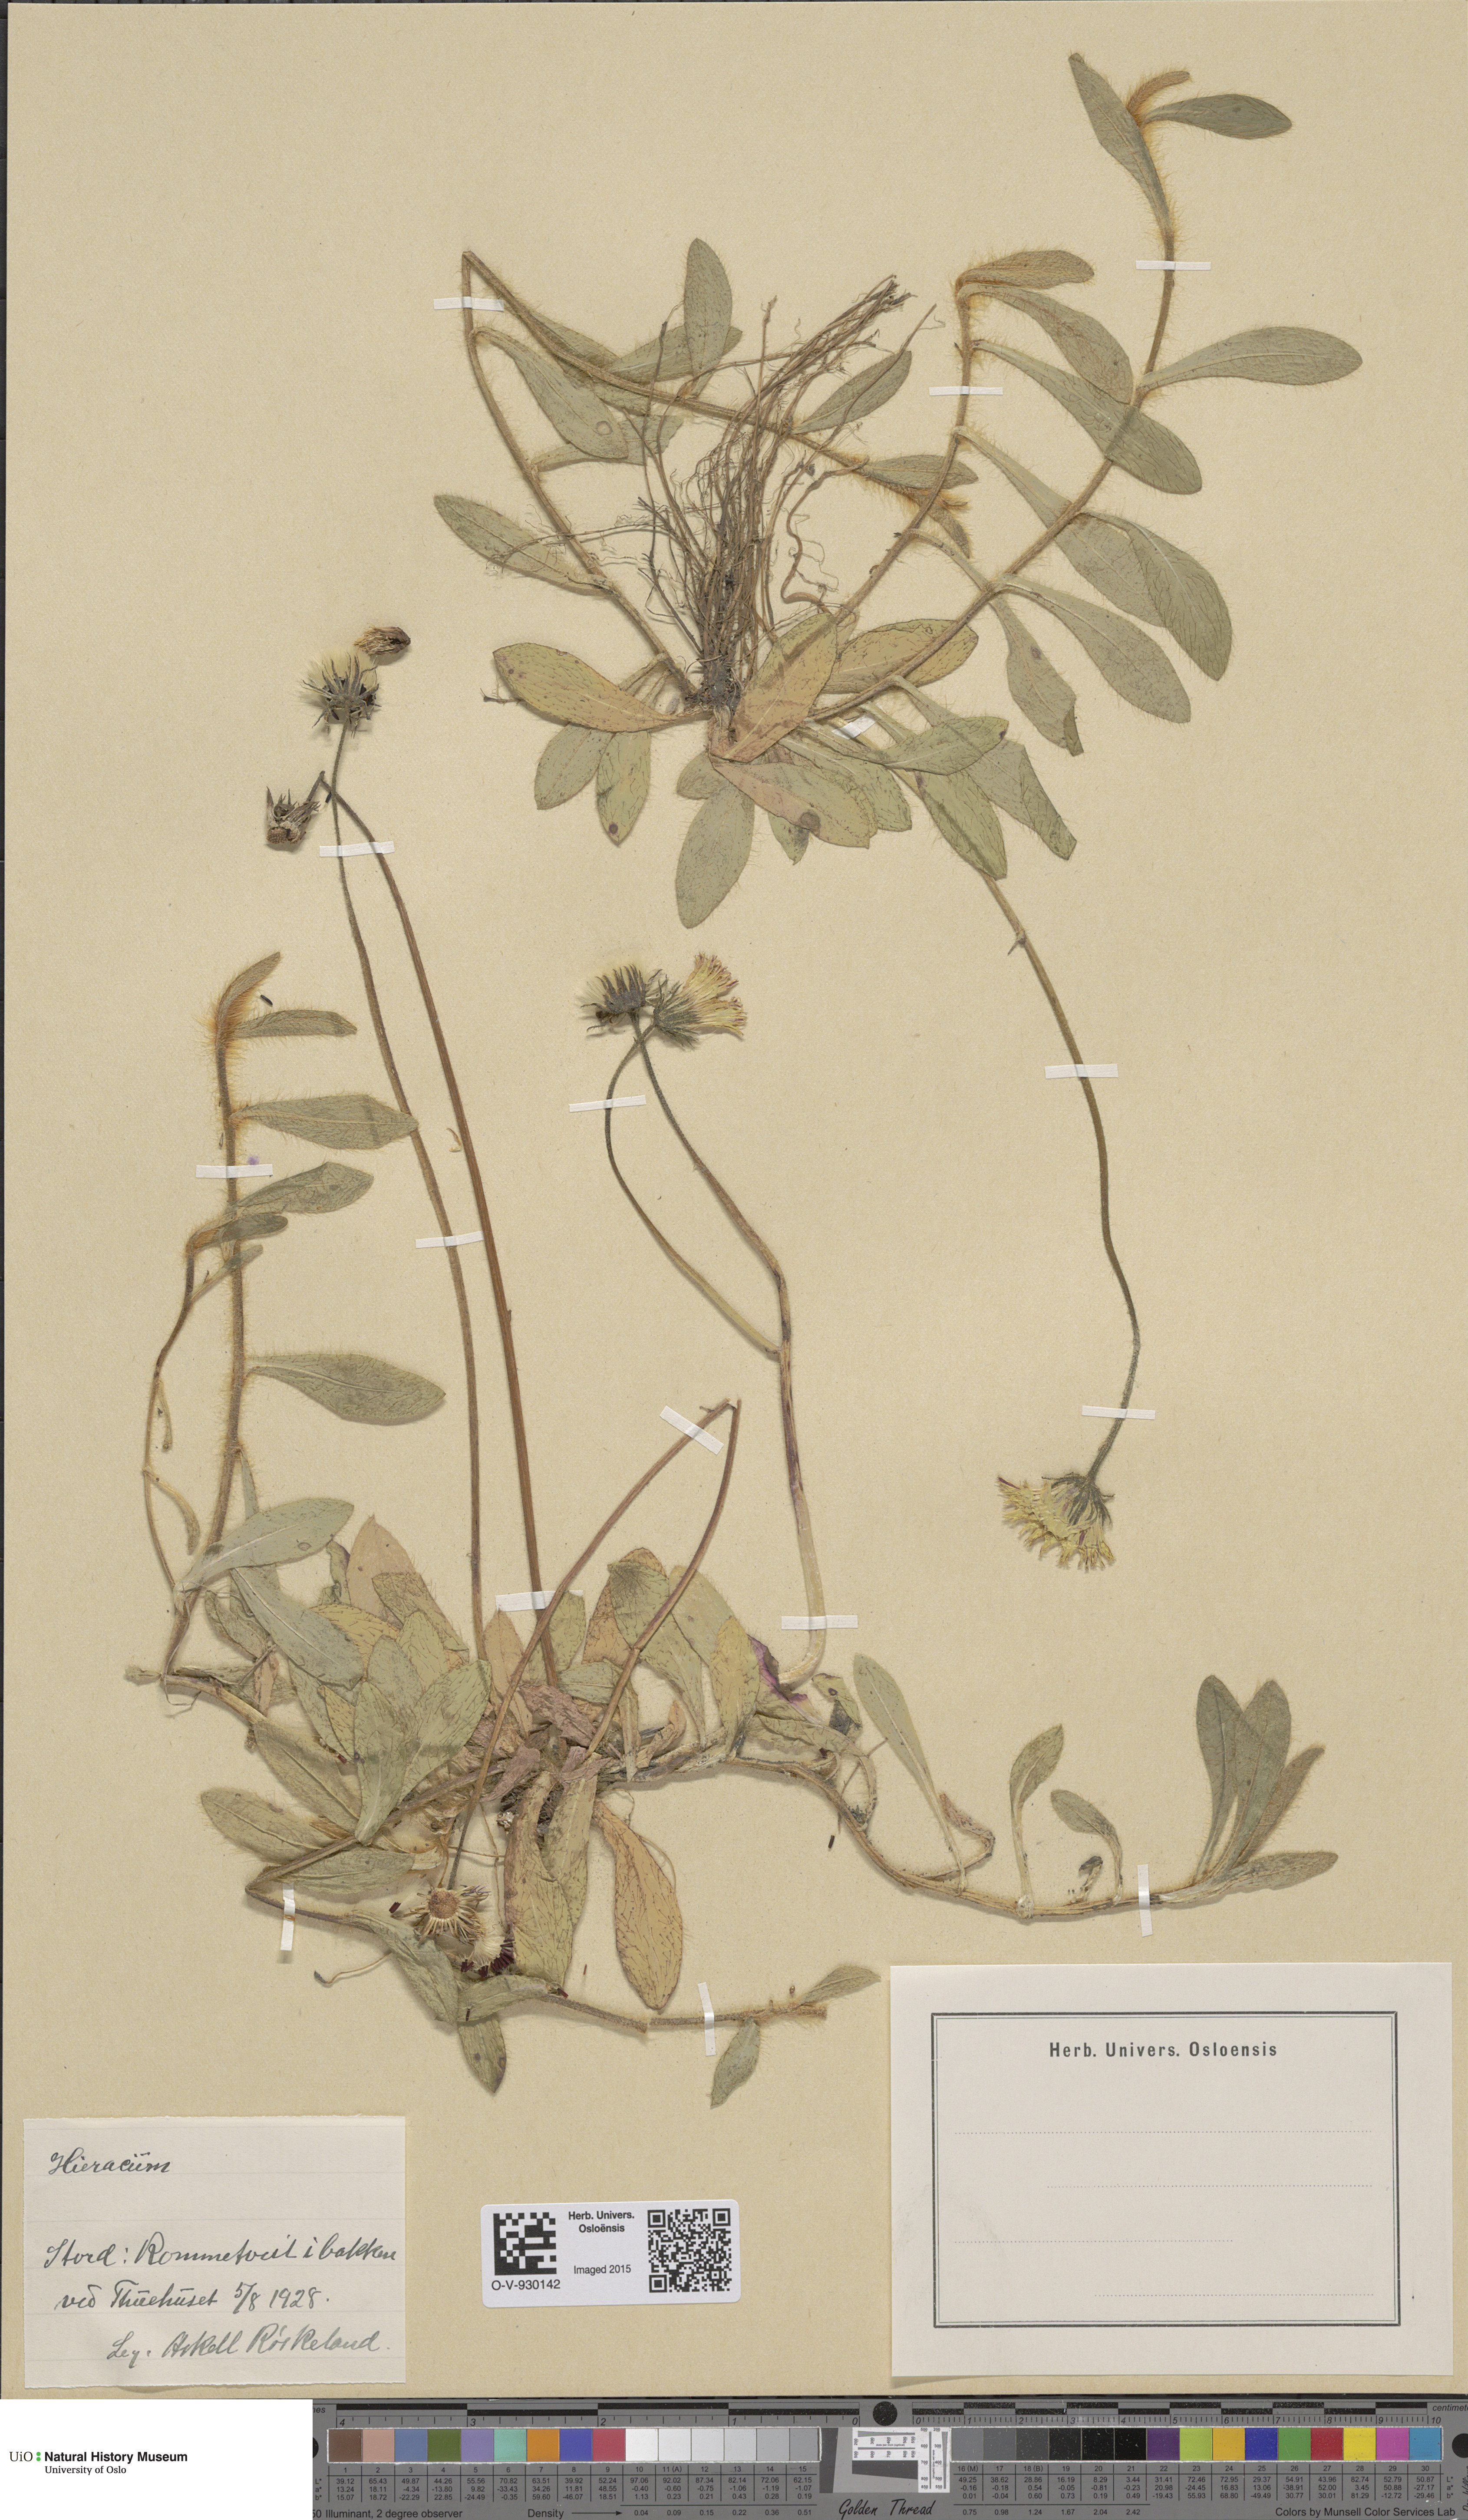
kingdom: Plantae
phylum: Tracheophyta
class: Magnoliopsida
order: Asterales
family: Asteraceae
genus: Pilosella
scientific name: Pilosella officinarum
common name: Mouse-ear hawkweed
